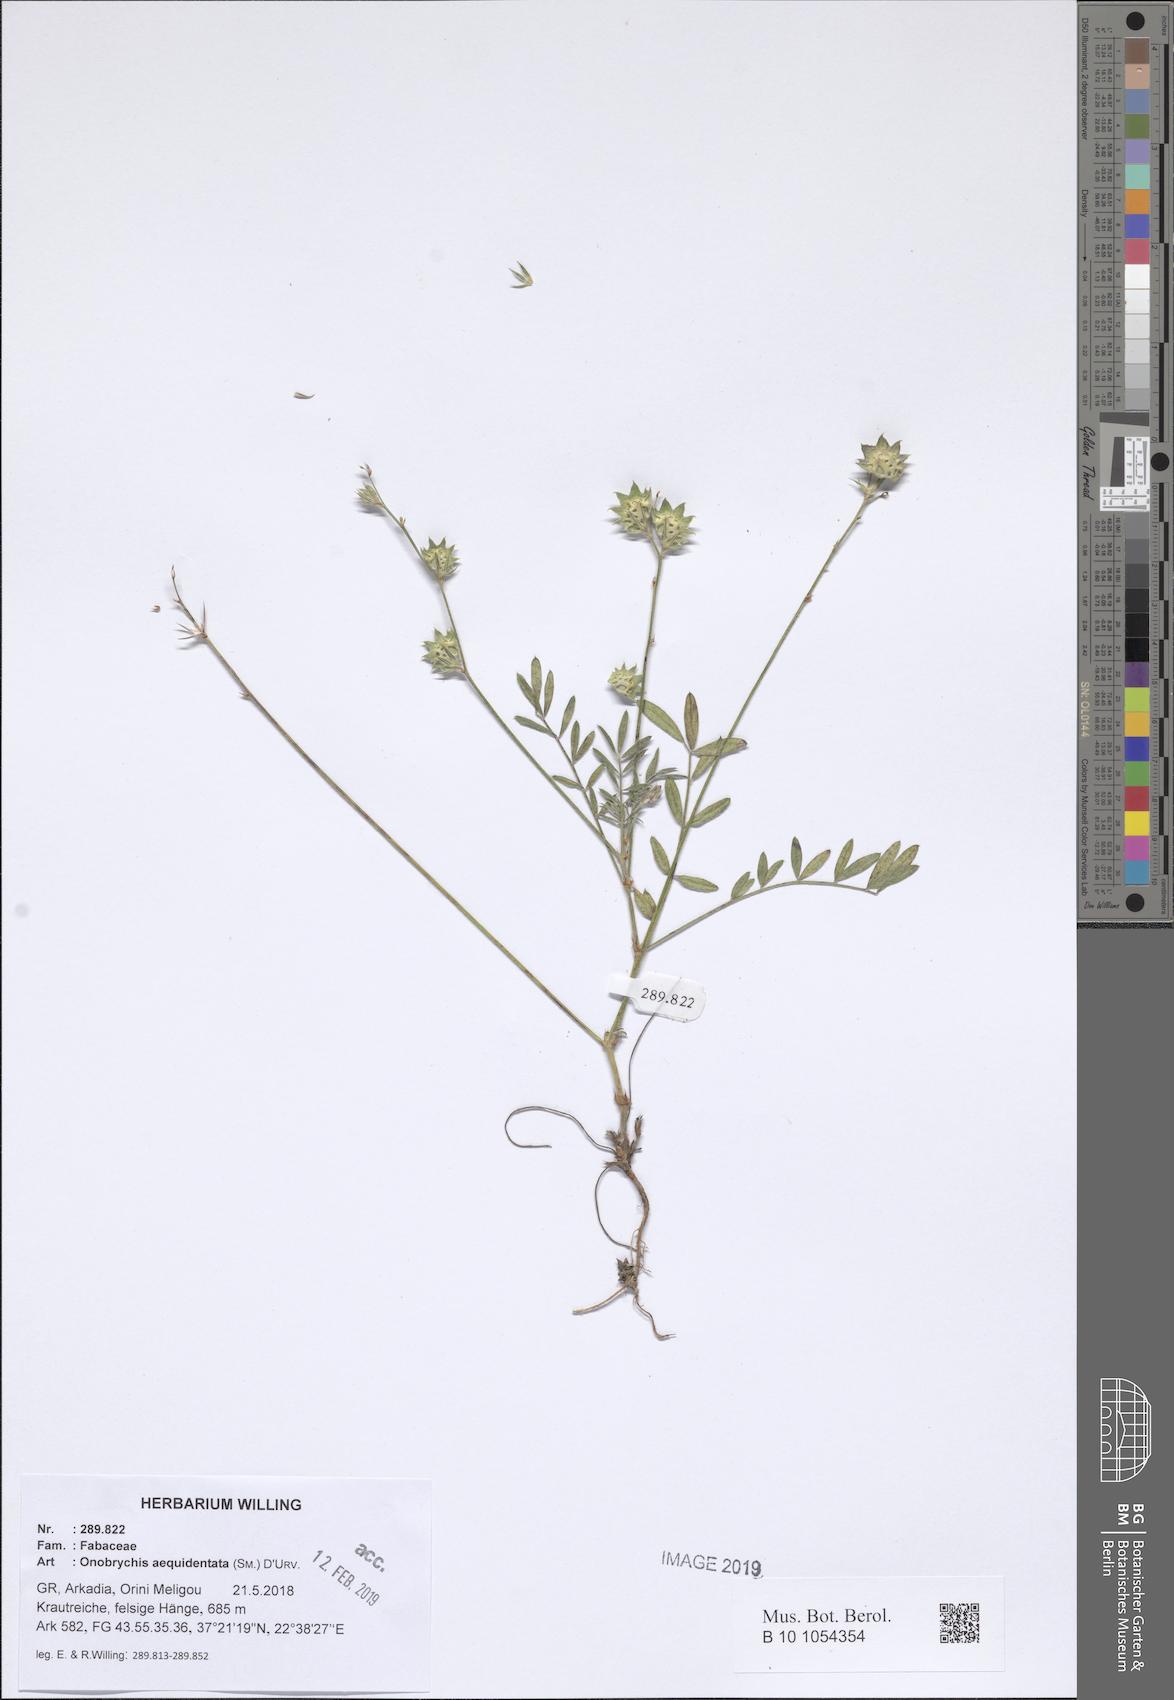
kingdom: Plantae
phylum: Tracheophyta
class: Magnoliopsida
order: Fabales
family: Fabaceae
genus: Onobrychis
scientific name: Onobrychis aequidentata
